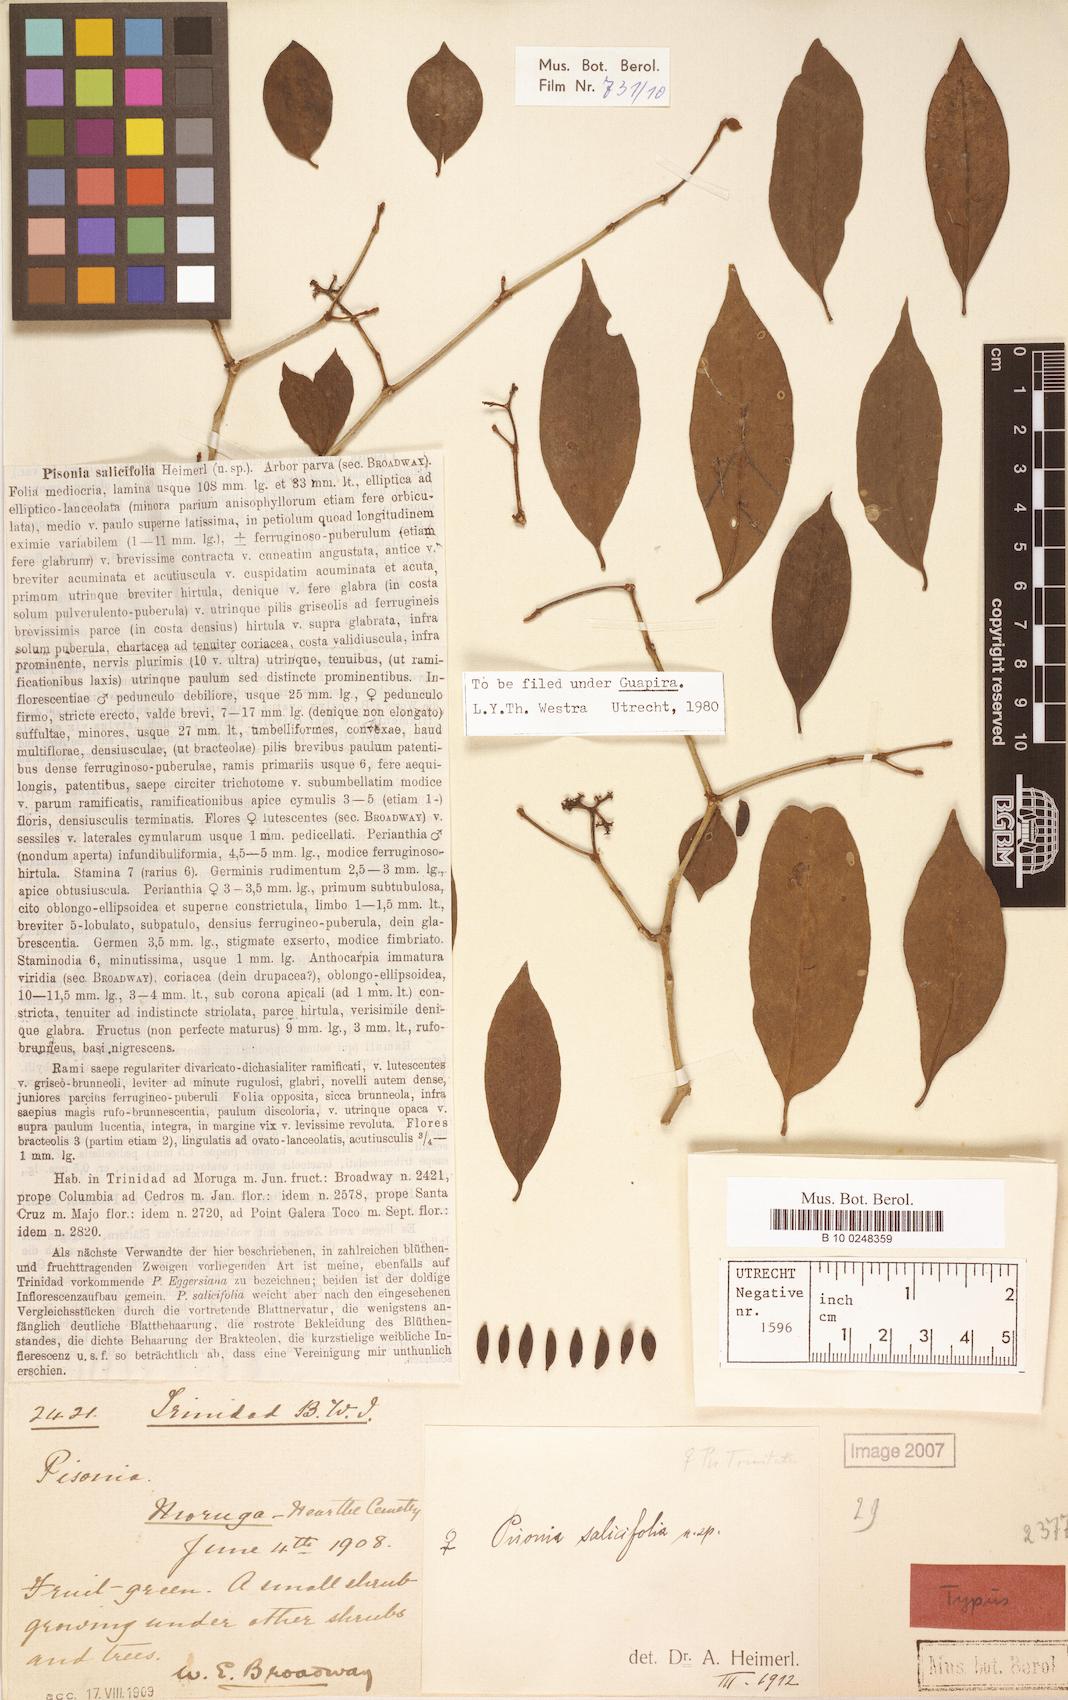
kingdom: Plantae
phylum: Tracheophyta
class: Magnoliopsida
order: Caryophyllales
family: Nyctaginaceae
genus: Guapira
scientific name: Guapira salicifolia
